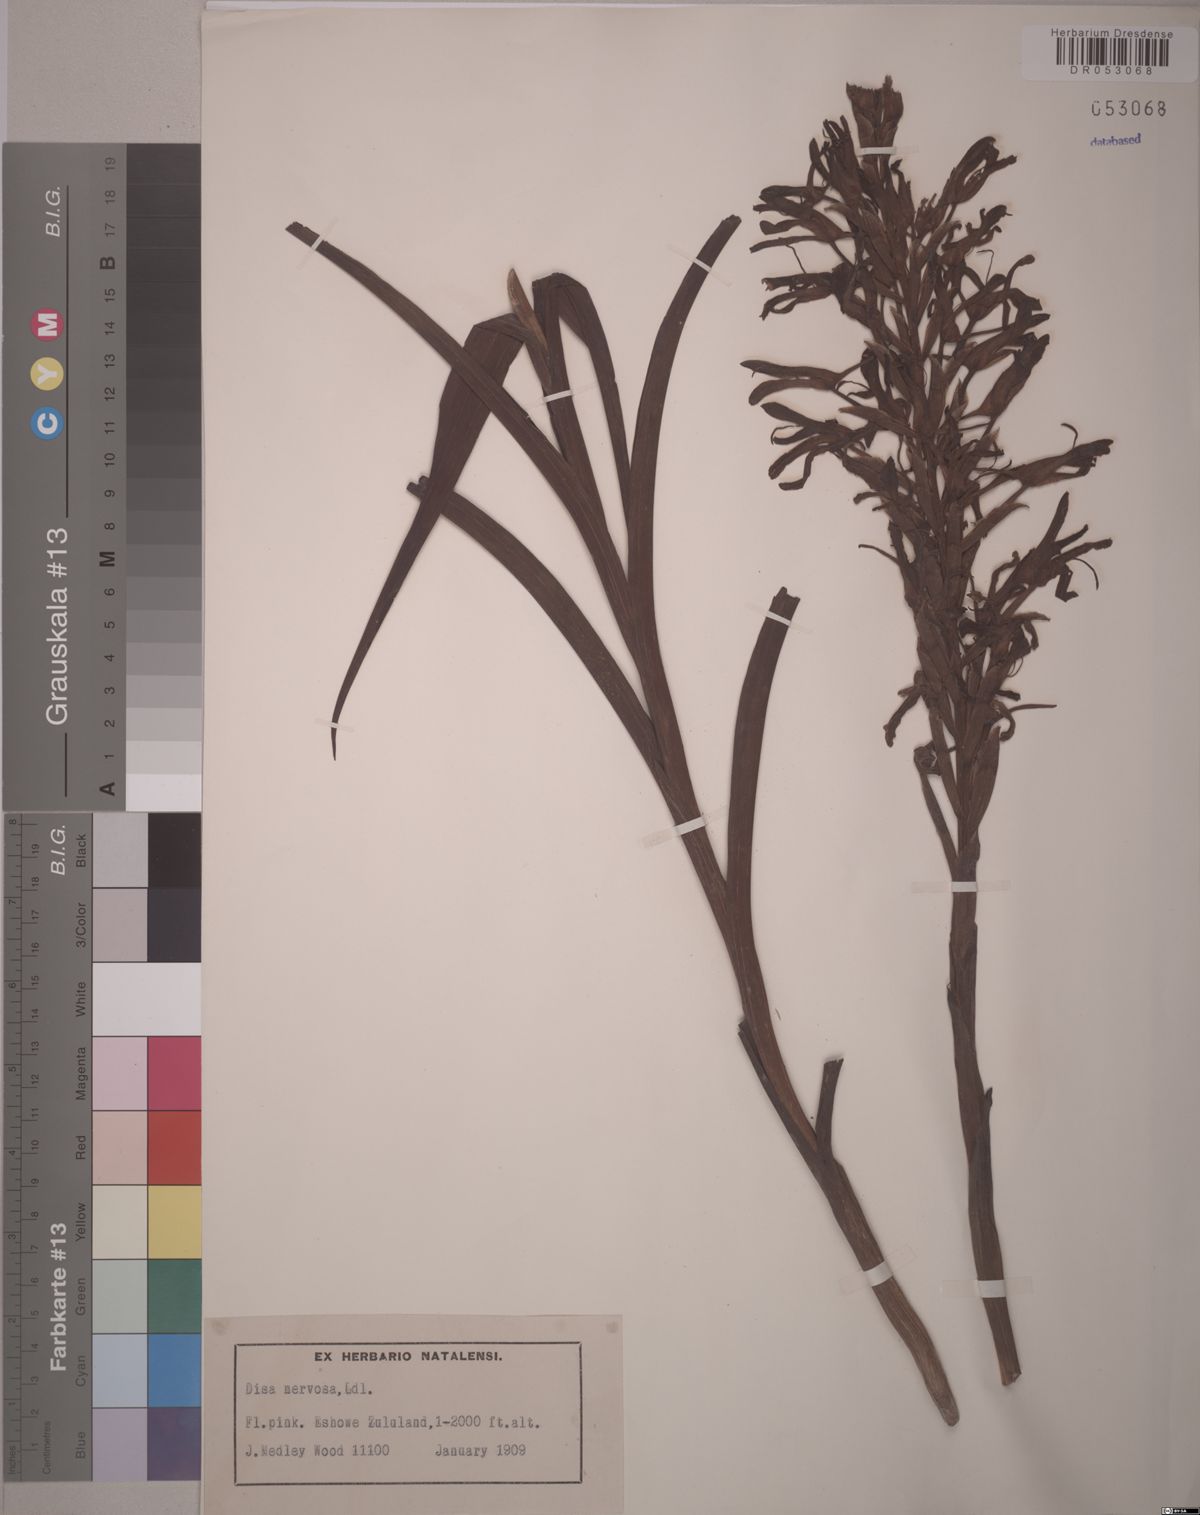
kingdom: Plantae
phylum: Tracheophyta
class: Liliopsida
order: Asparagales
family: Orchidaceae
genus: Disa
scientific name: Disa nervosa
